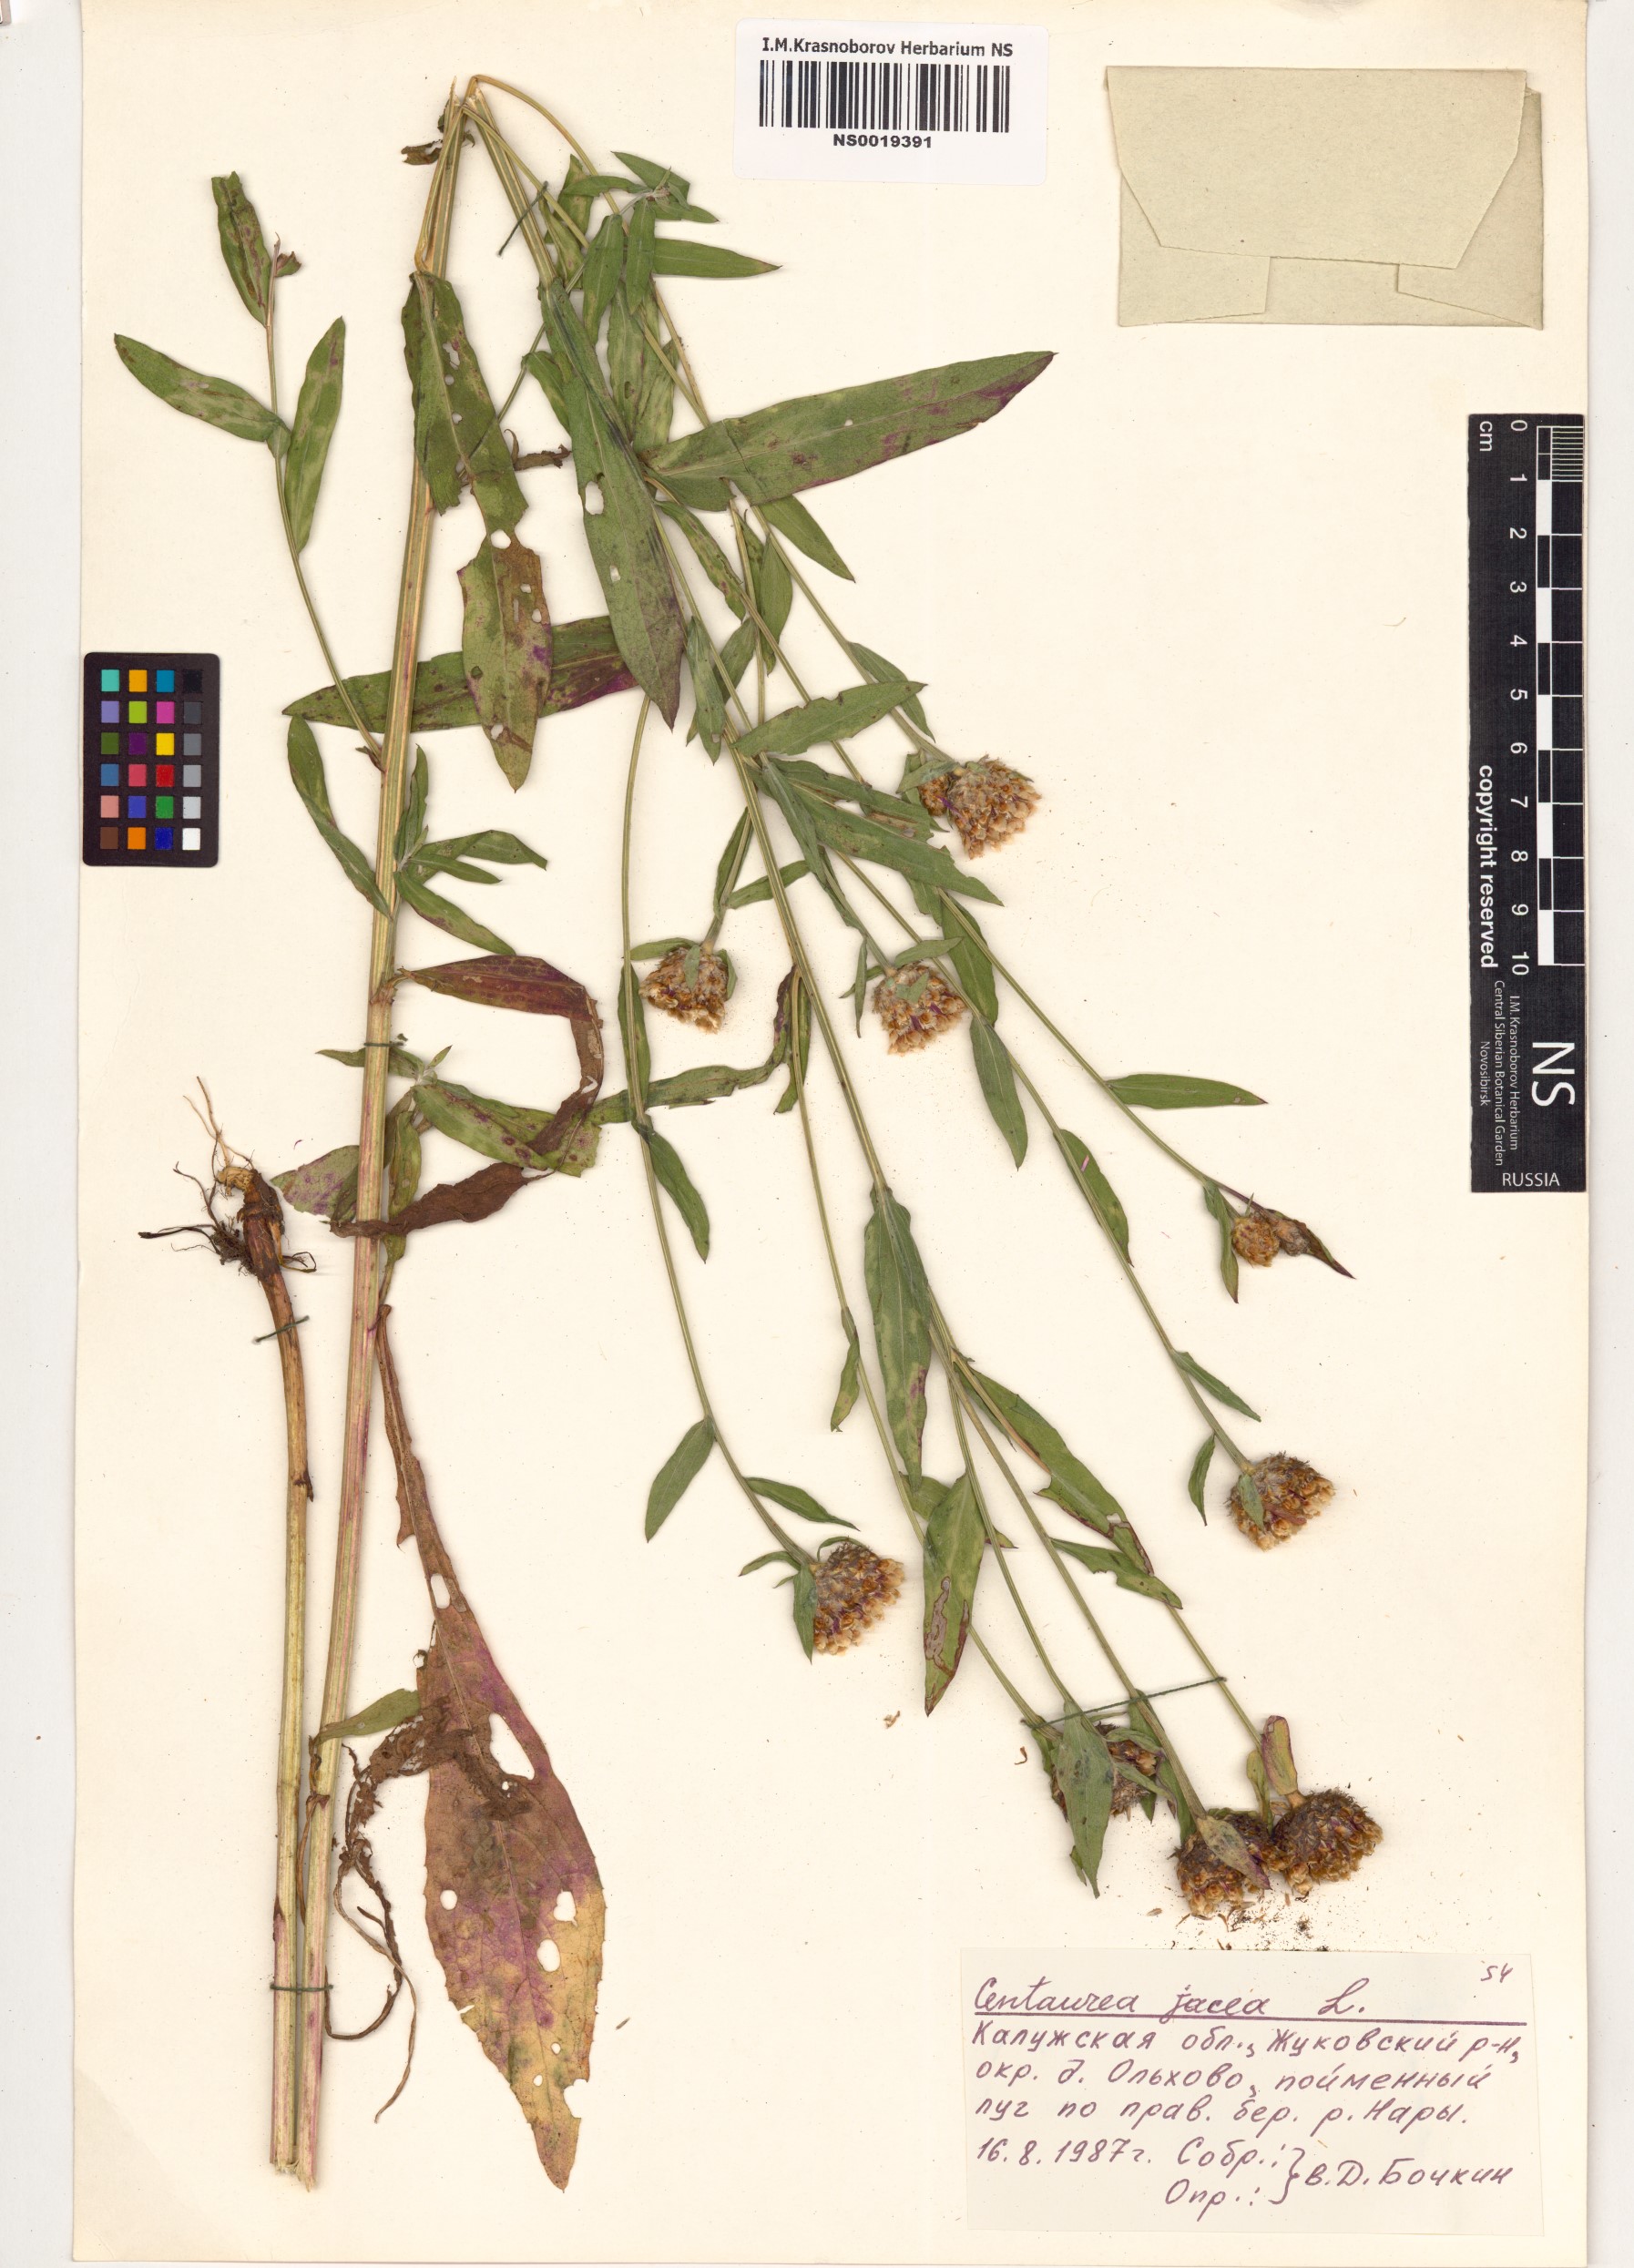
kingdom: Plantae
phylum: Tracheophyta
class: Magnoliopsida
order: Asterales
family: Asteraceae
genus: Centaurea
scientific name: Centaurea jacea
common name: Brown knapweed
